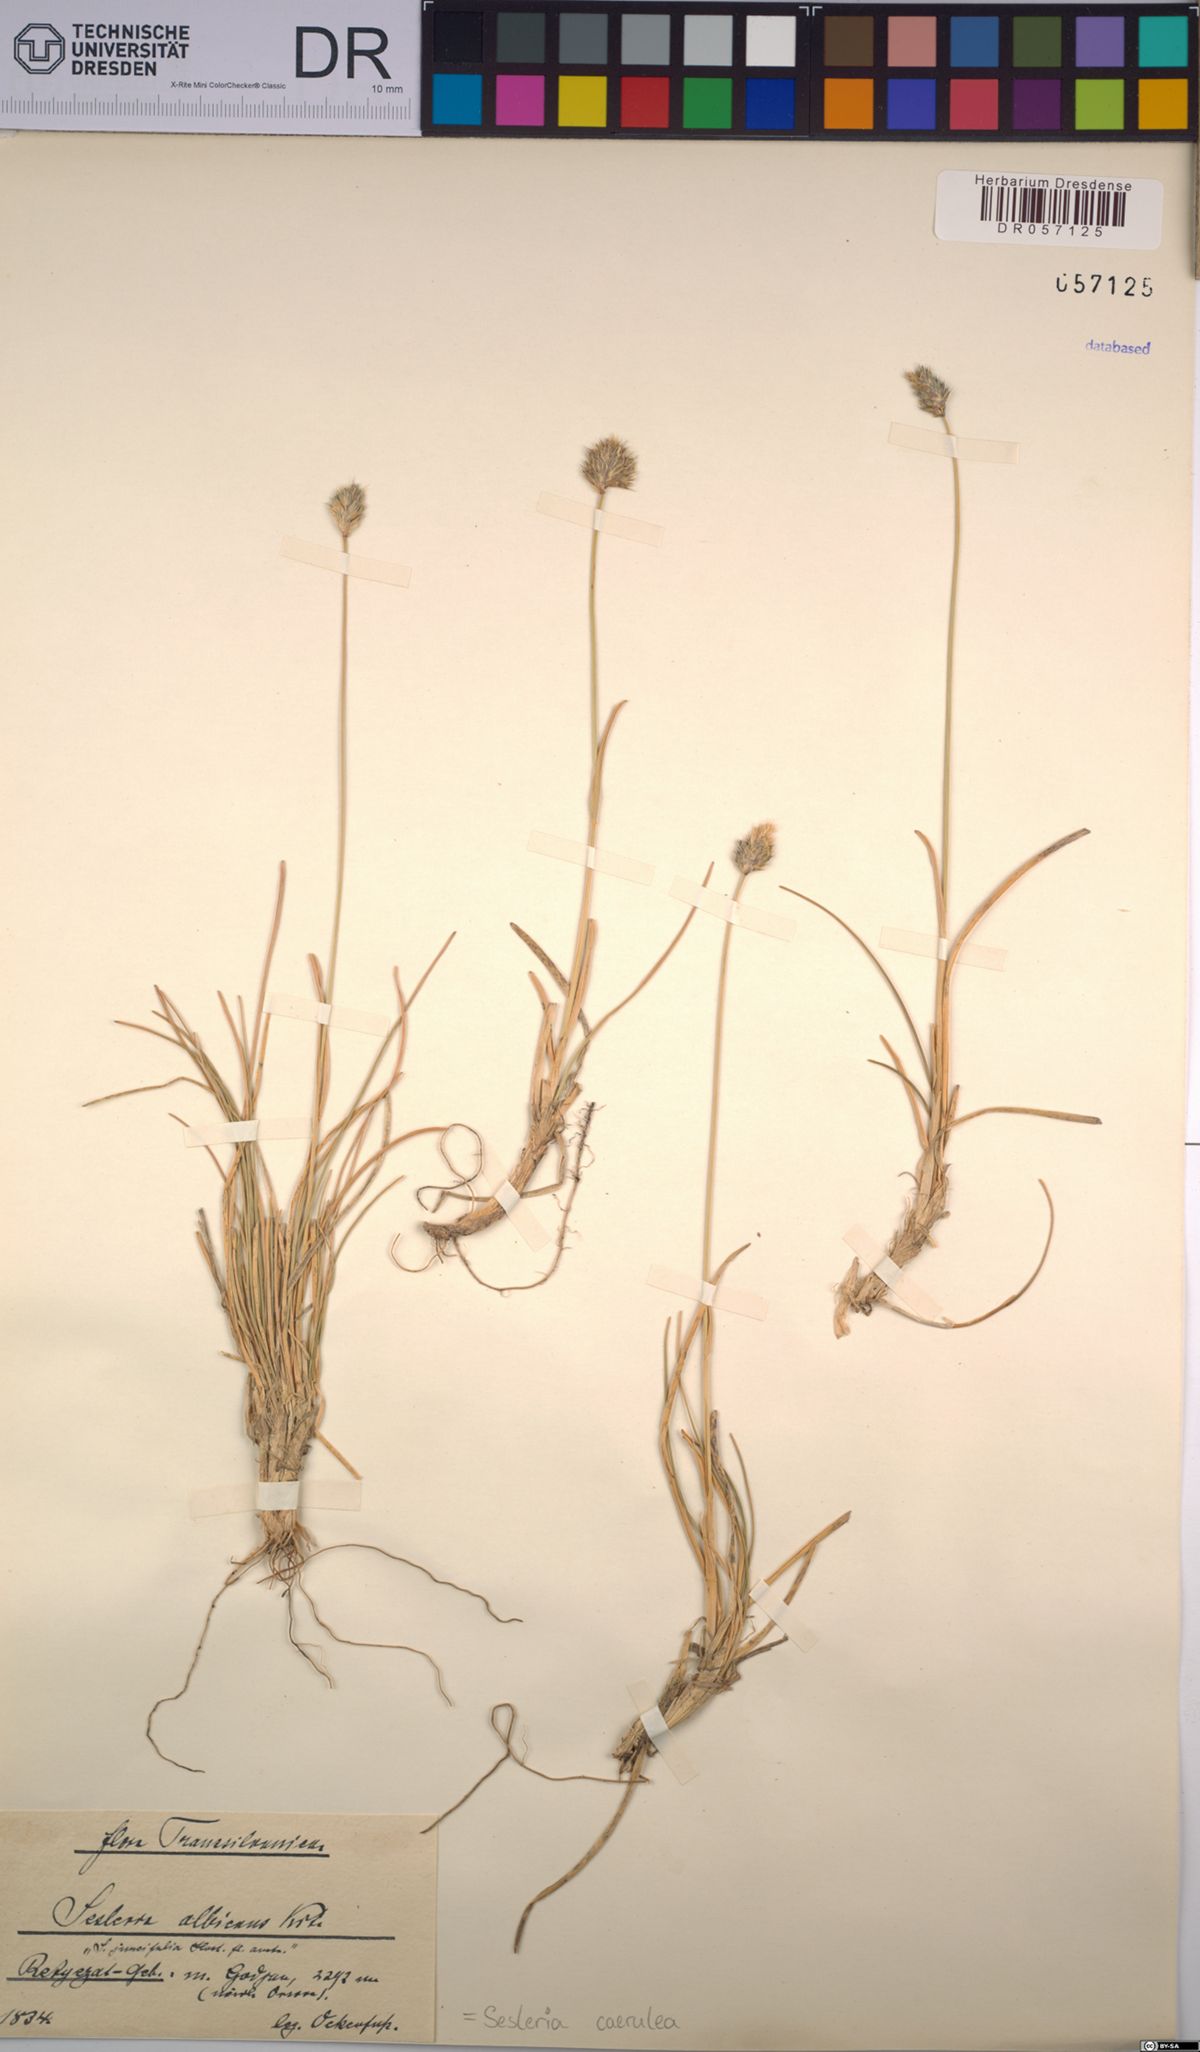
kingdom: Plantae
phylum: Tracheophyta
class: Liliopsida
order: Poales
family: Poaceae
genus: Sesleria
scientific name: Sesleria caerulea
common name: Blue moor-grass
